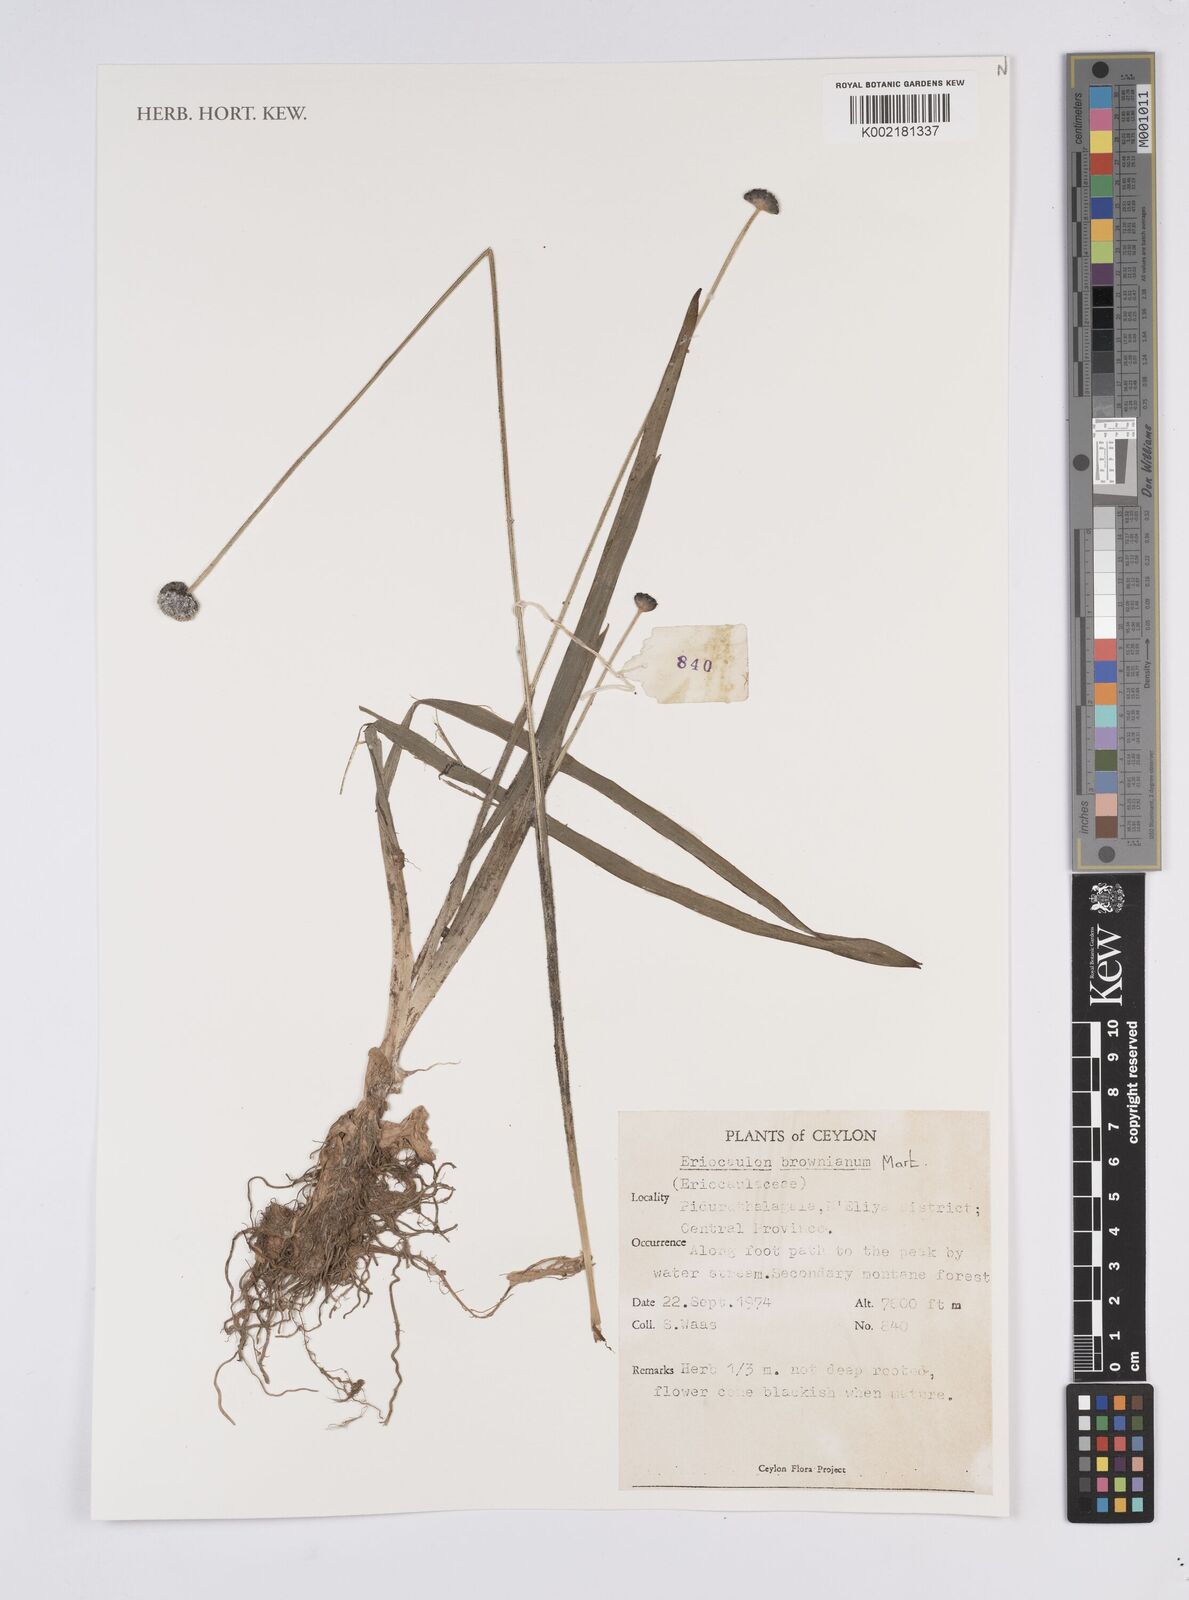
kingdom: Plantae
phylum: Tracheophyta
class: Liliopsida
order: Poales
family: Eriocaulaceae
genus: Eriocaulon
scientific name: Eriocaulon brownianum
